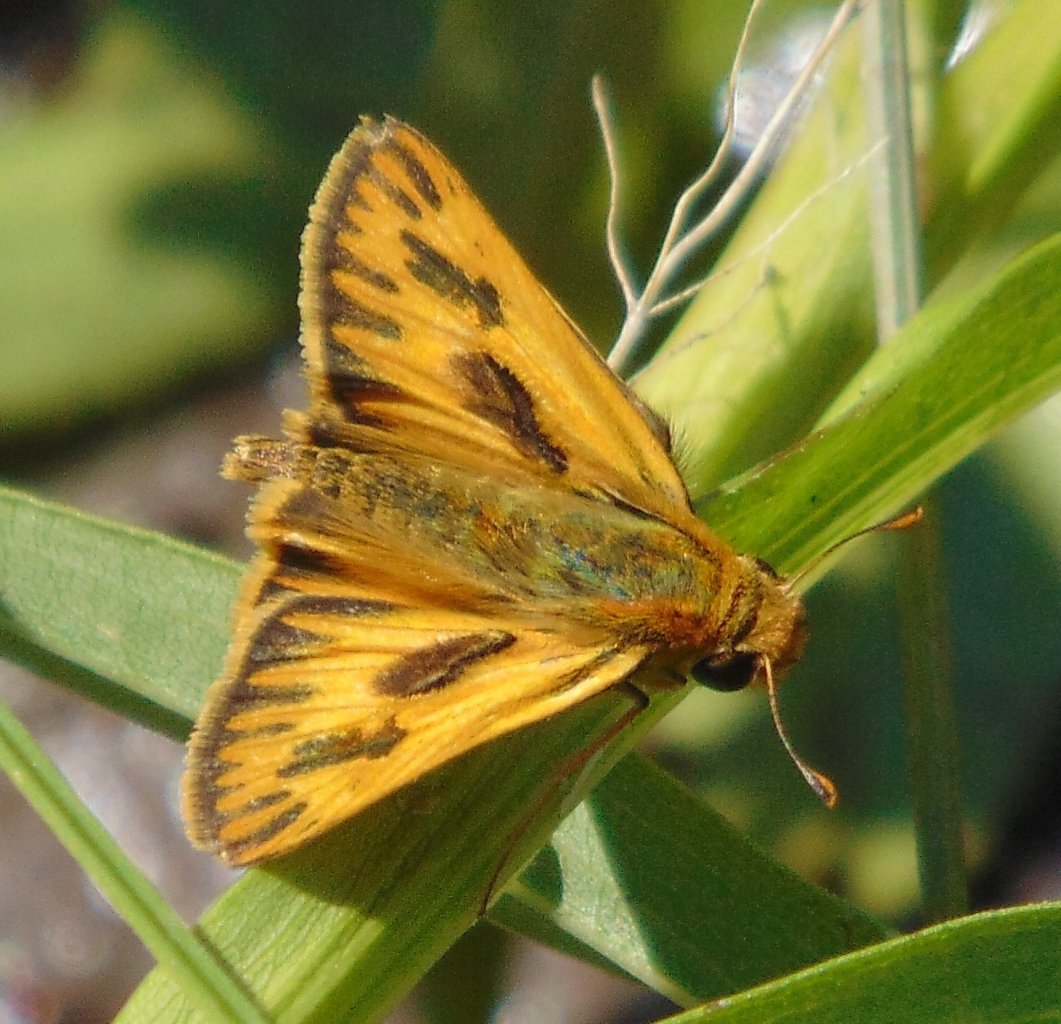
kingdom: Animalia
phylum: Arthropoda
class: Insecta
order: Lepidoptera
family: Hesperiidae
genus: Hylephila
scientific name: Hylephila phyleus
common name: Fiery Skipper
